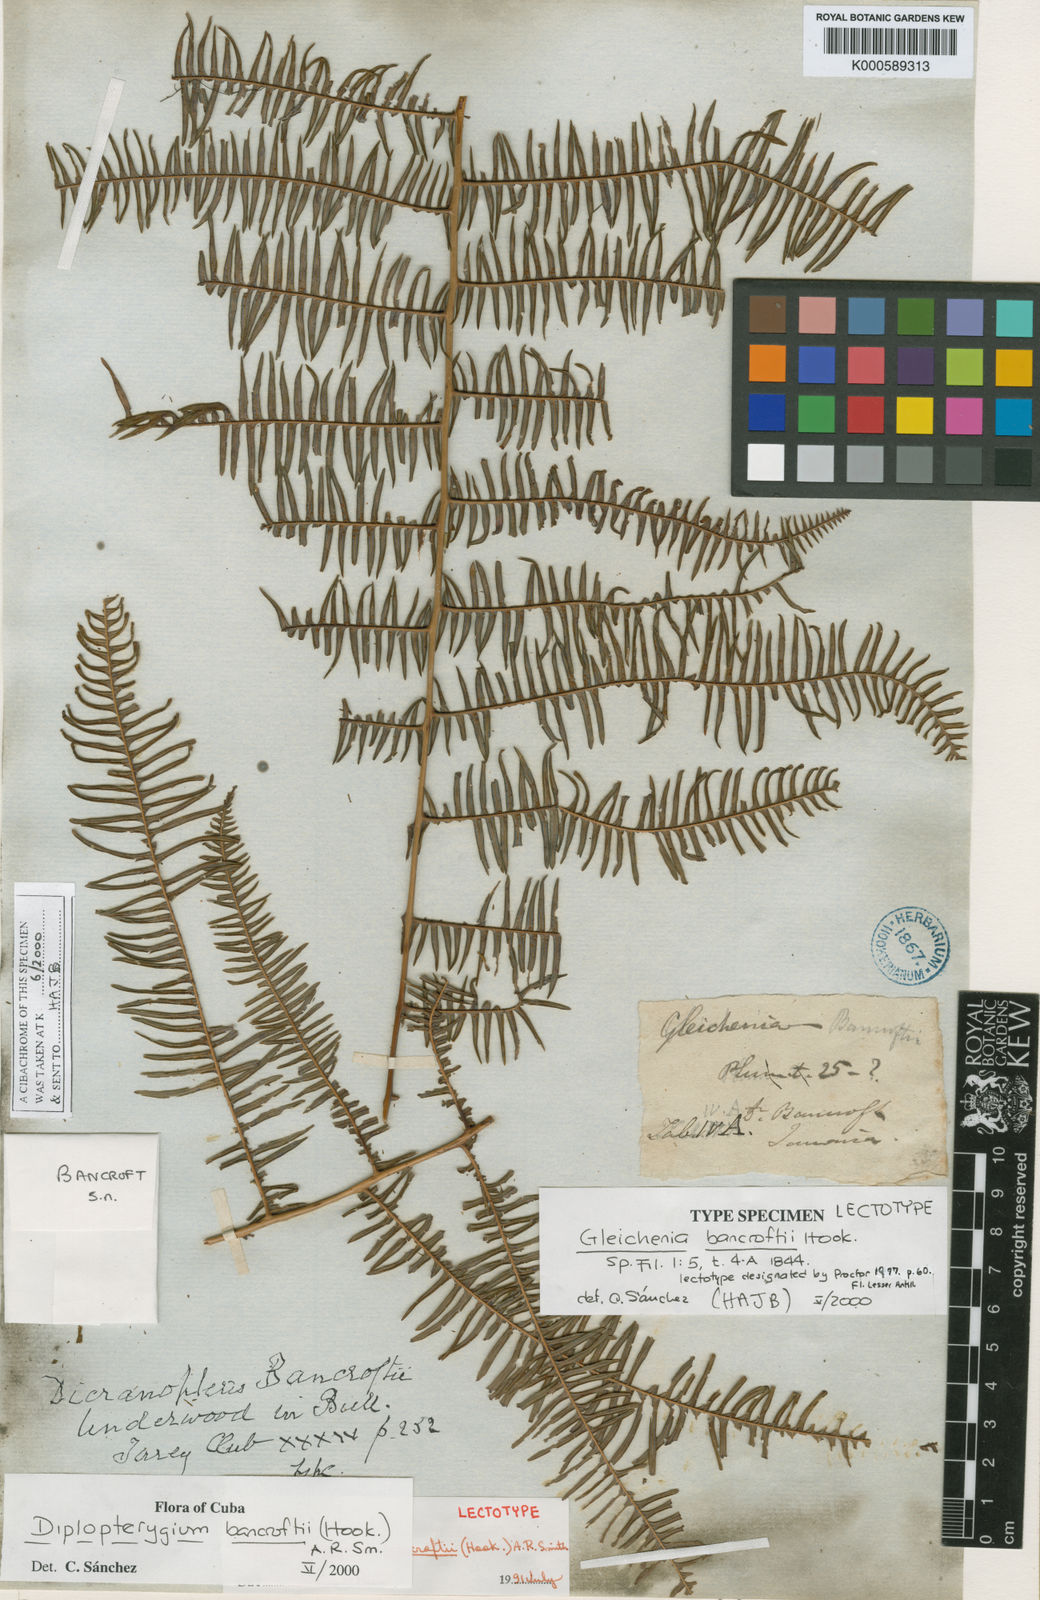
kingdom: Plantae
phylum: Tracheophyta
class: Polypodiopsida
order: Gleicheniales
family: Gleicheniaceae
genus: Diplopterygium
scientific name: Diplopterygium bancroftii
